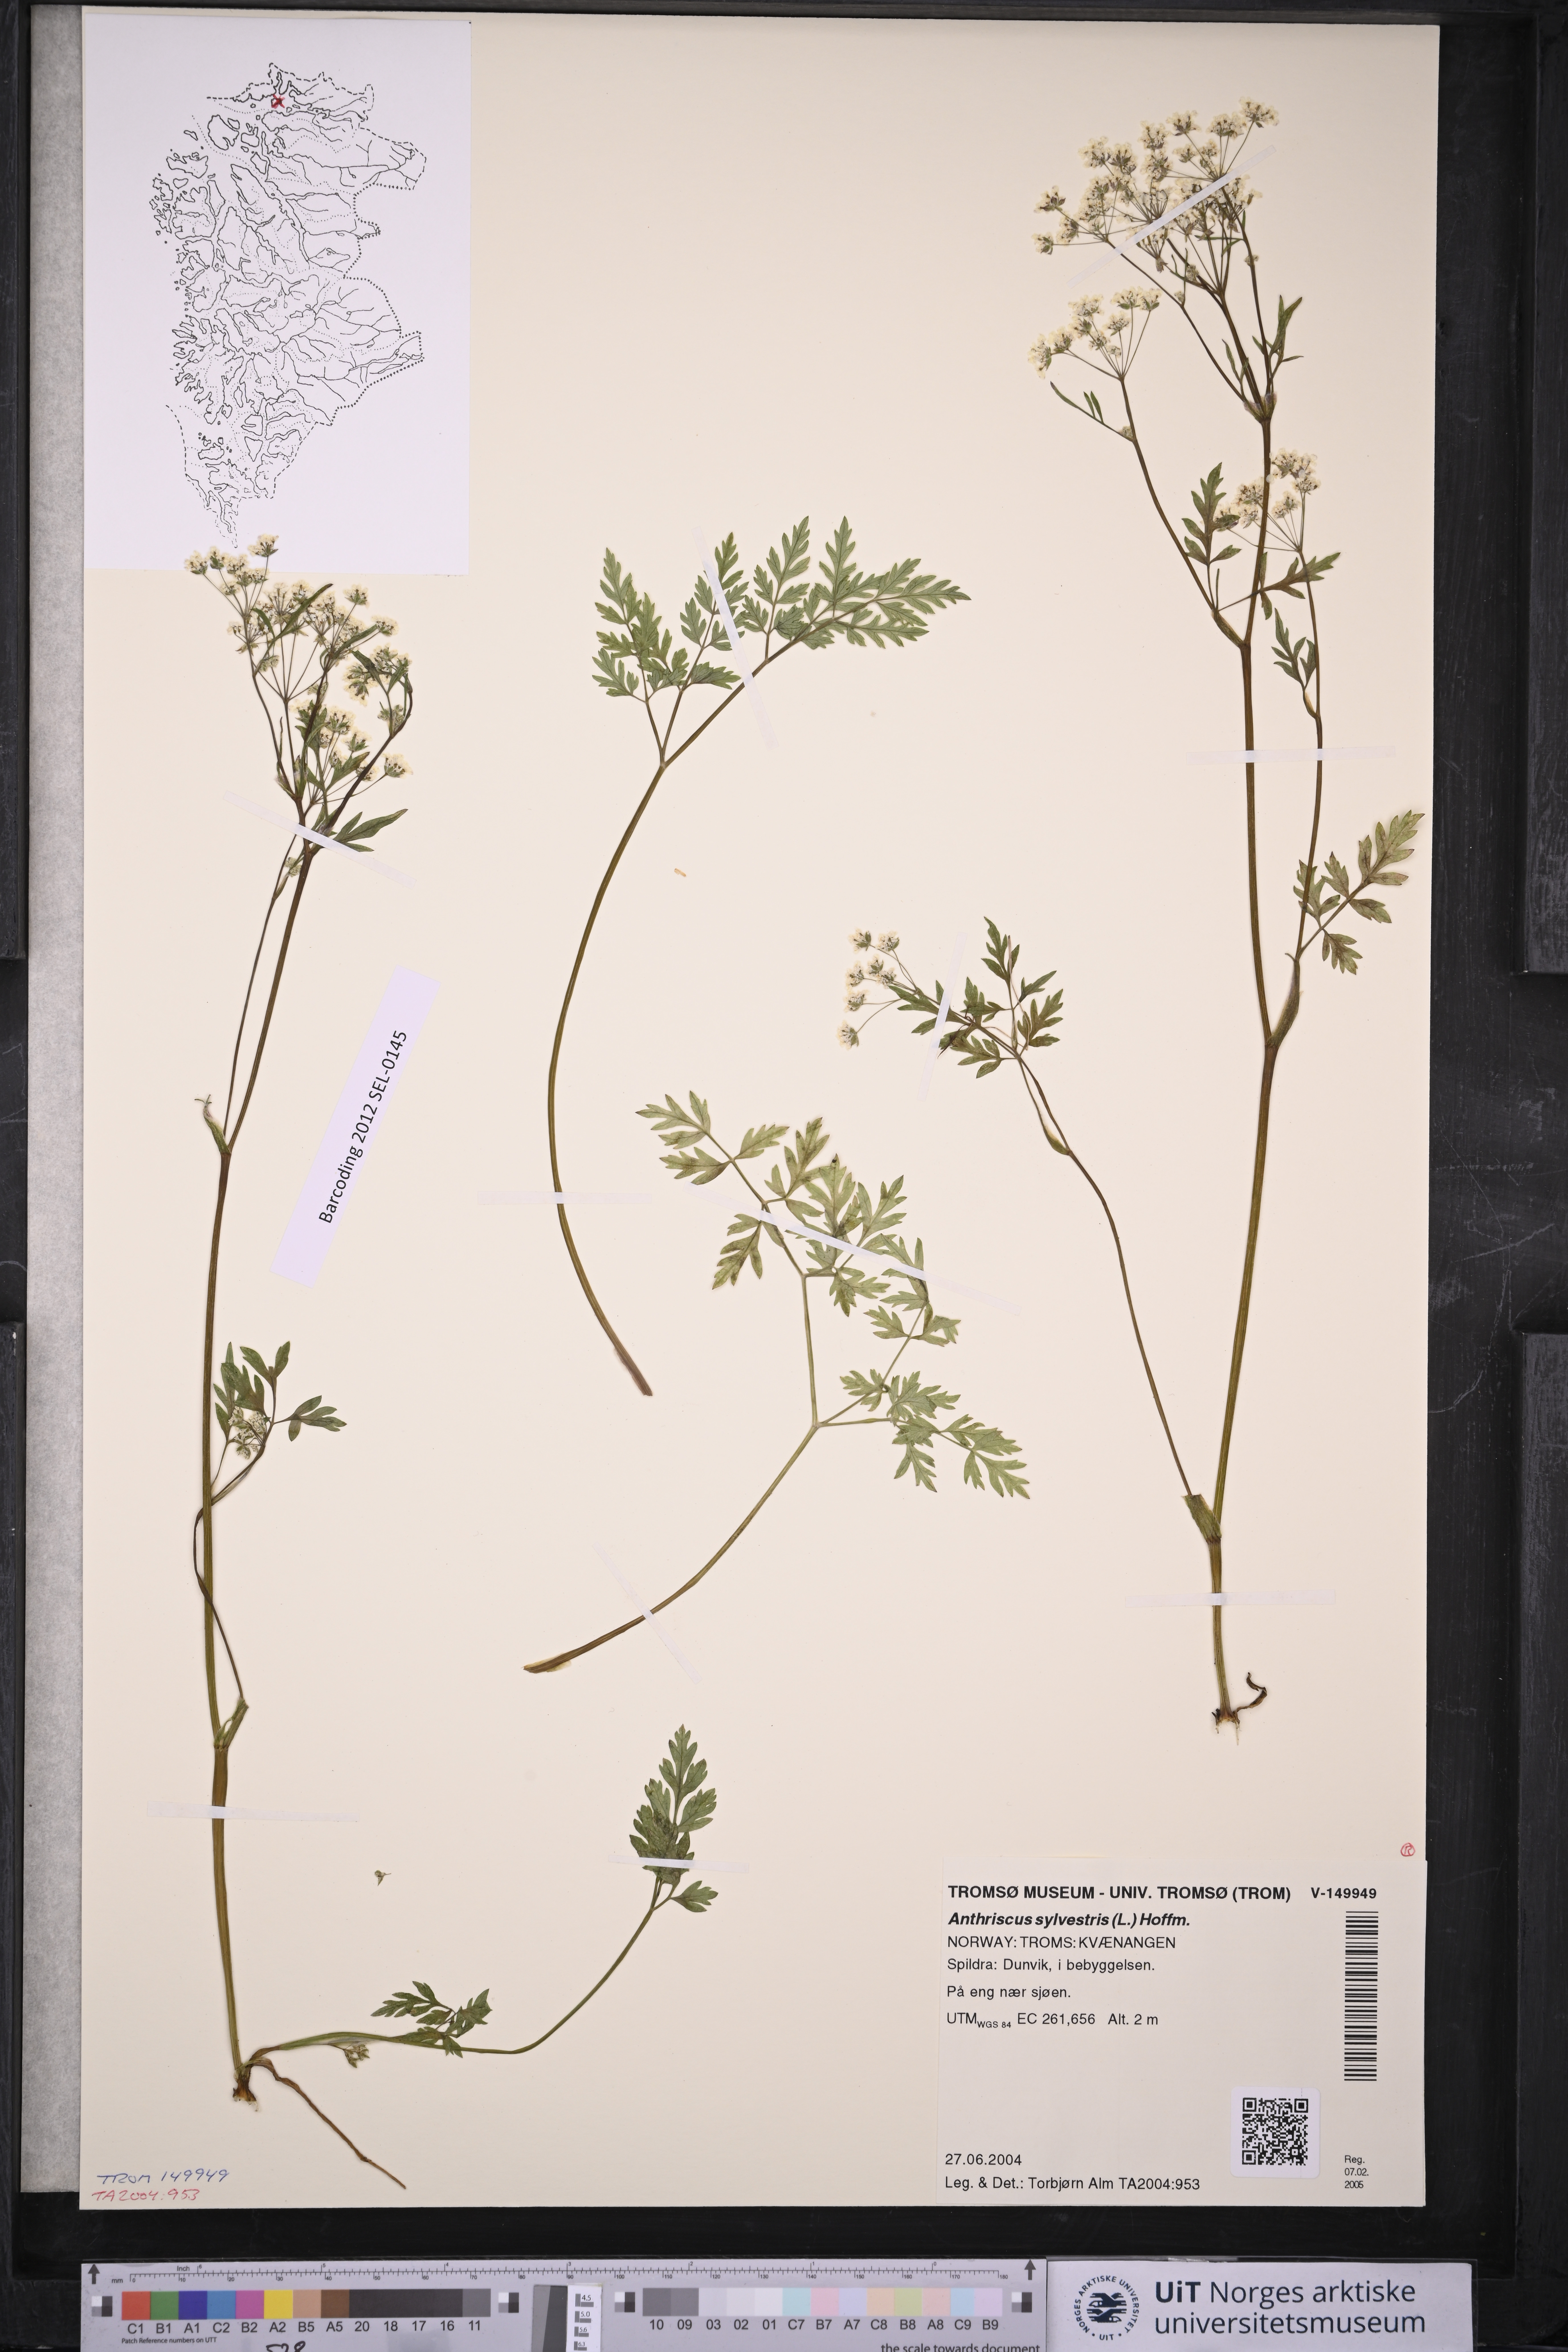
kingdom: Plantae
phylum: Tracheophyta
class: Magnoliopsida
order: Apiales
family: Apiaceae
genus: Anthriscus
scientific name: Anthriscus sylvestris
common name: Cow parsley
